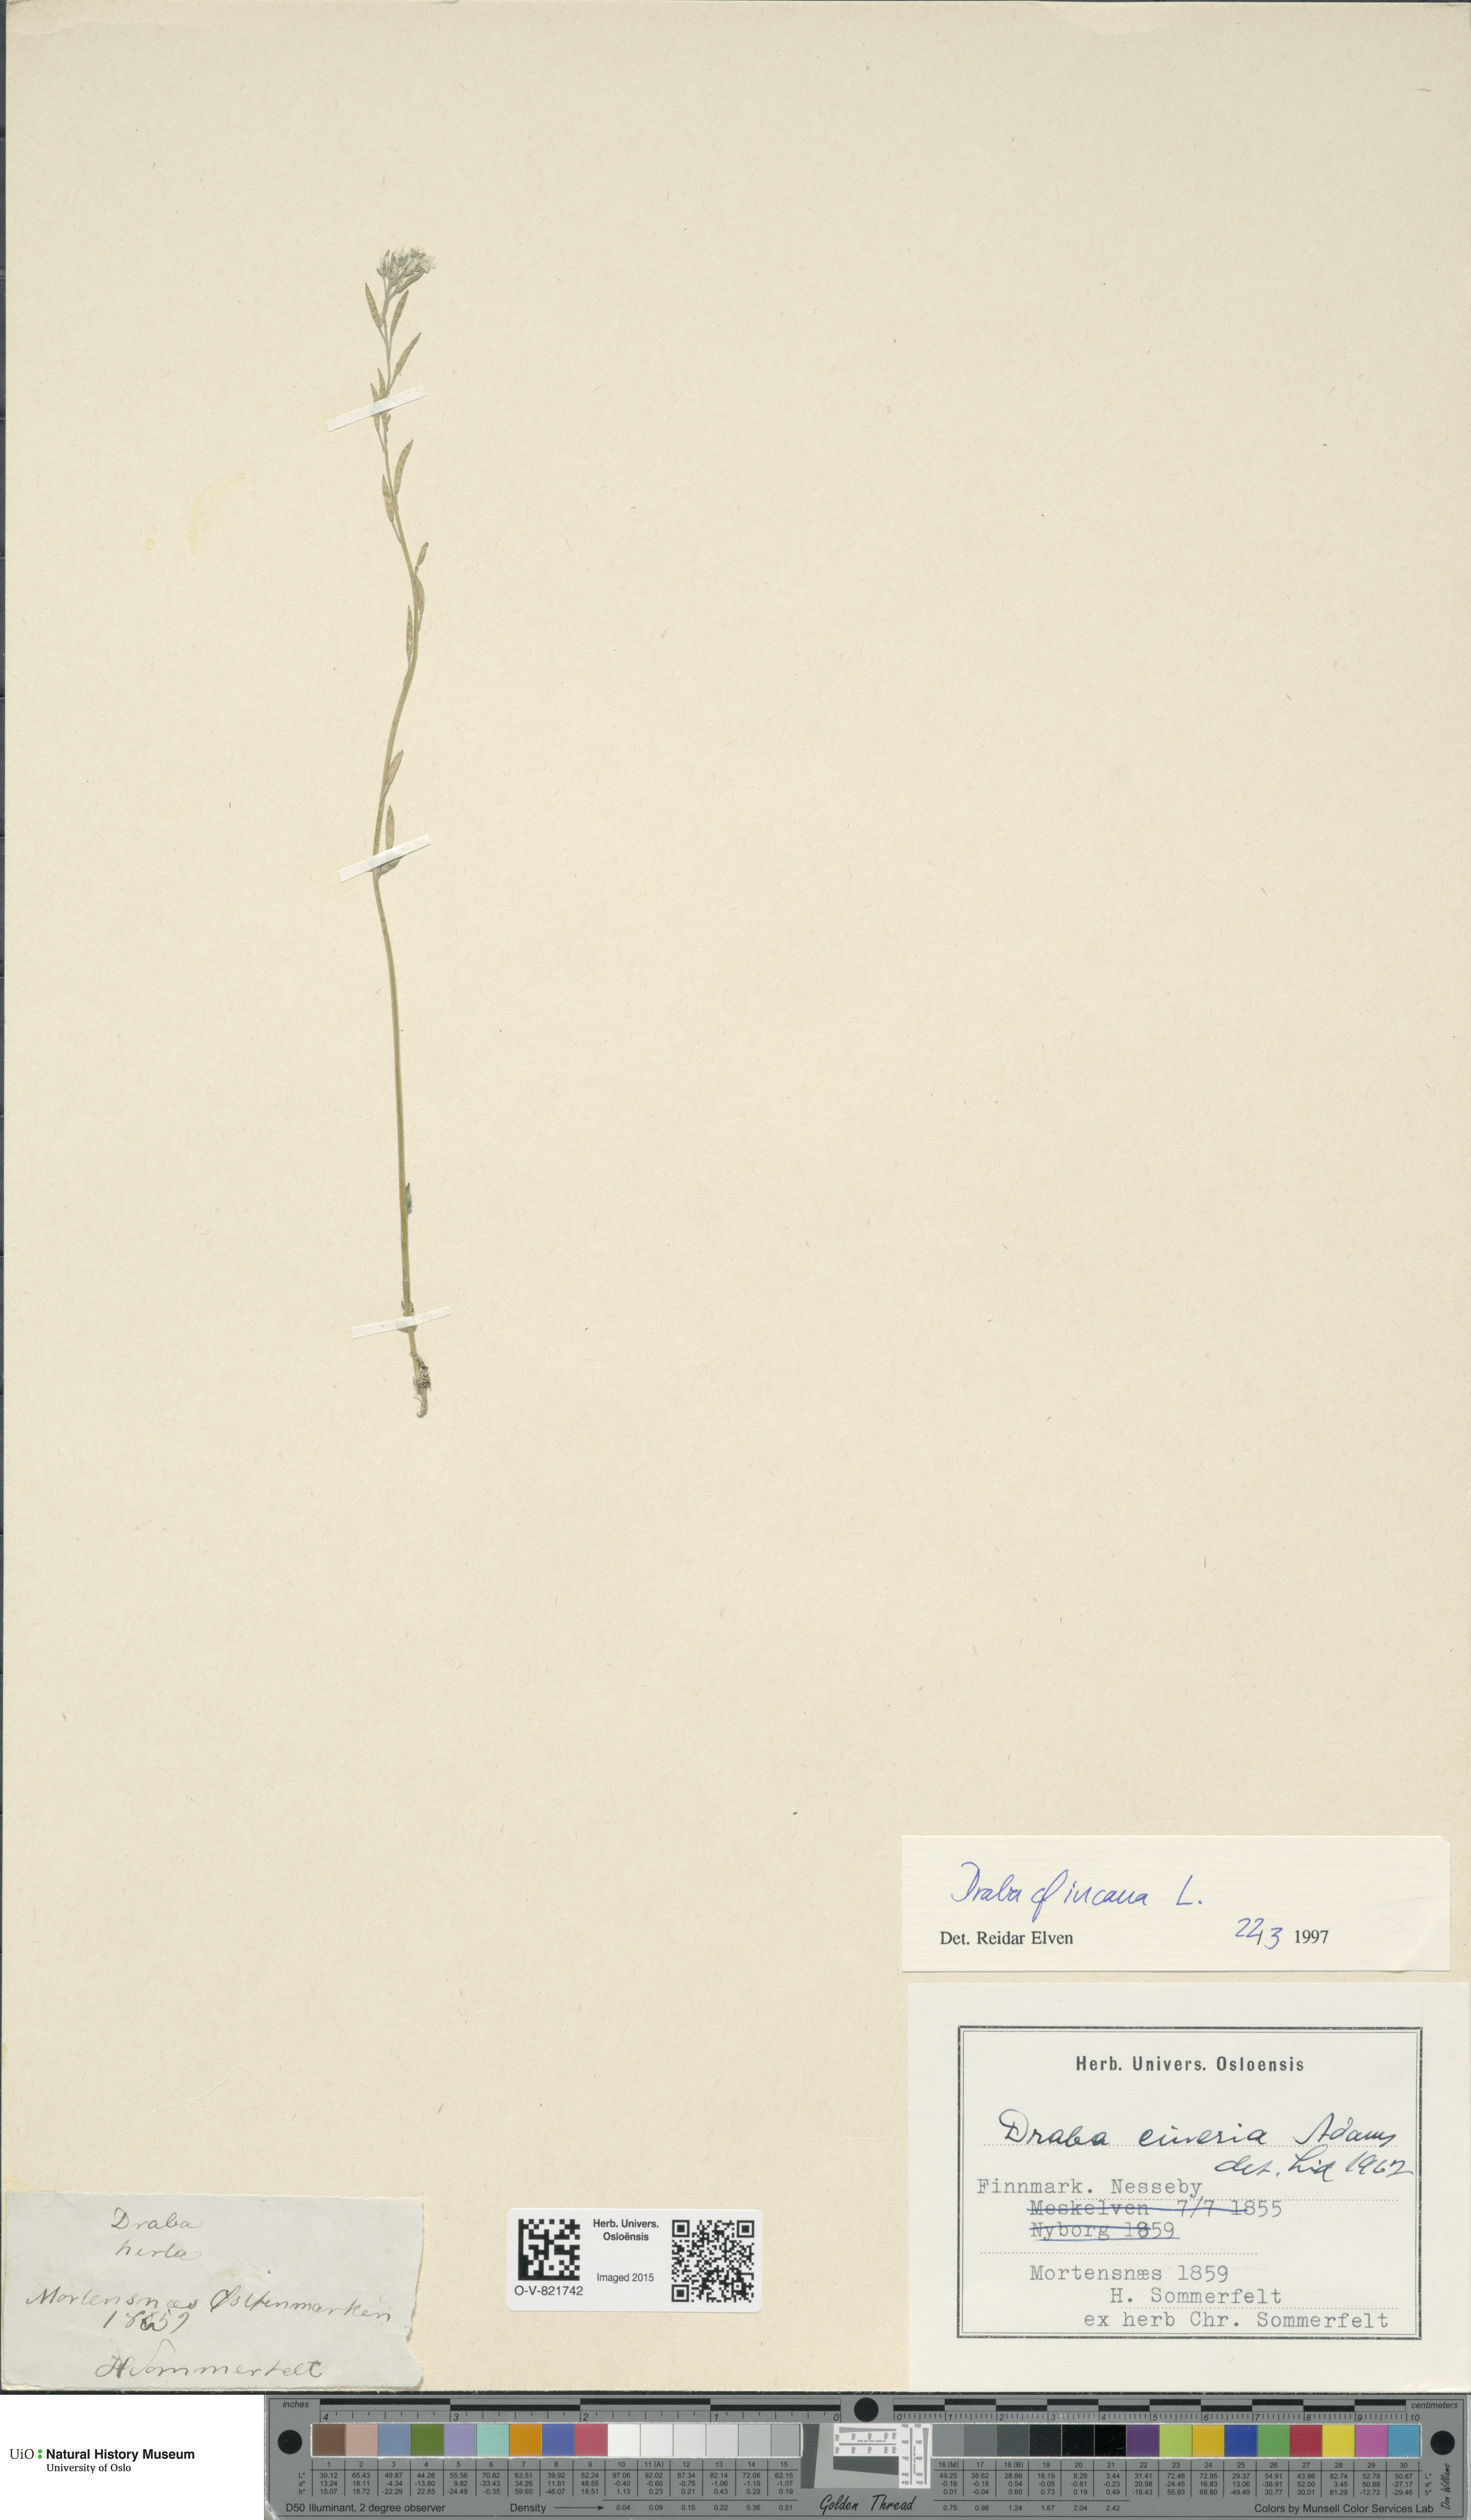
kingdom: Plantae
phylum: Tracheophyta
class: Magnoliopsida
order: Brassicales
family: Brassicaceae
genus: Draba
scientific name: Draba incana
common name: Hoary whitlow-grass
